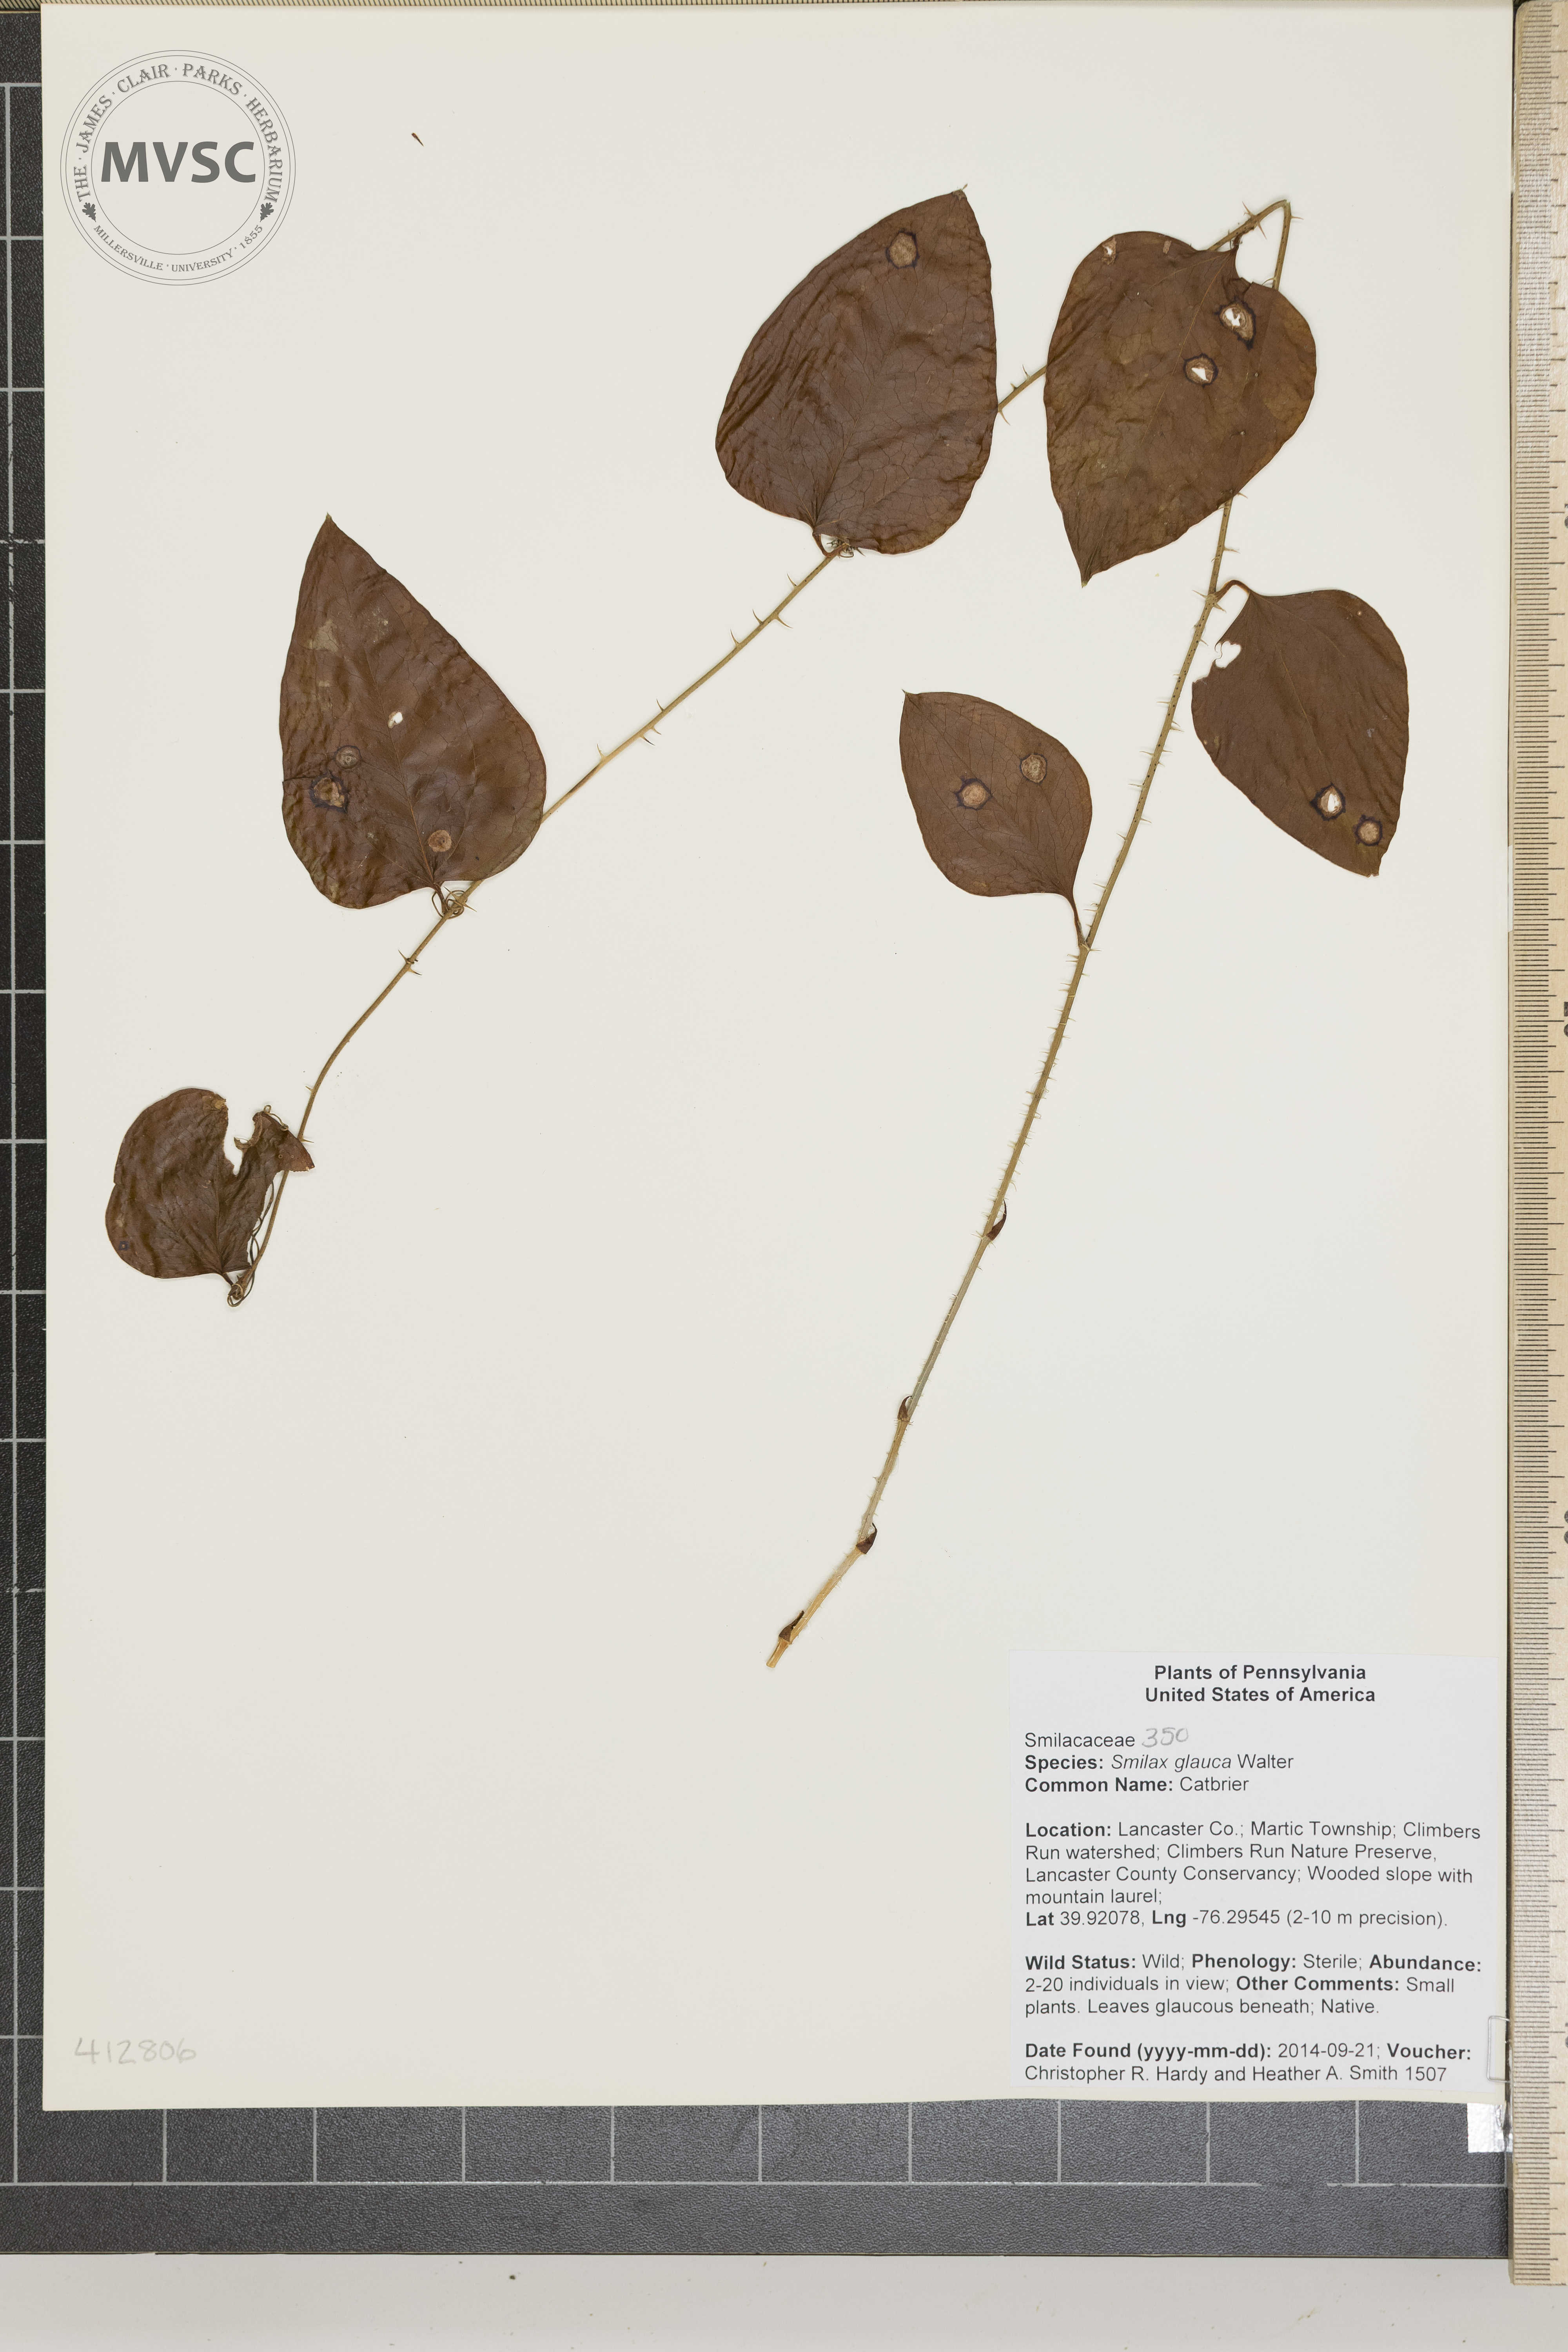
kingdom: Plantae
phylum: Tracheophyta
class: Liliopsida
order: Liliales
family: Smilacaceae
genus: Smilax
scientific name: Smilax glauca
